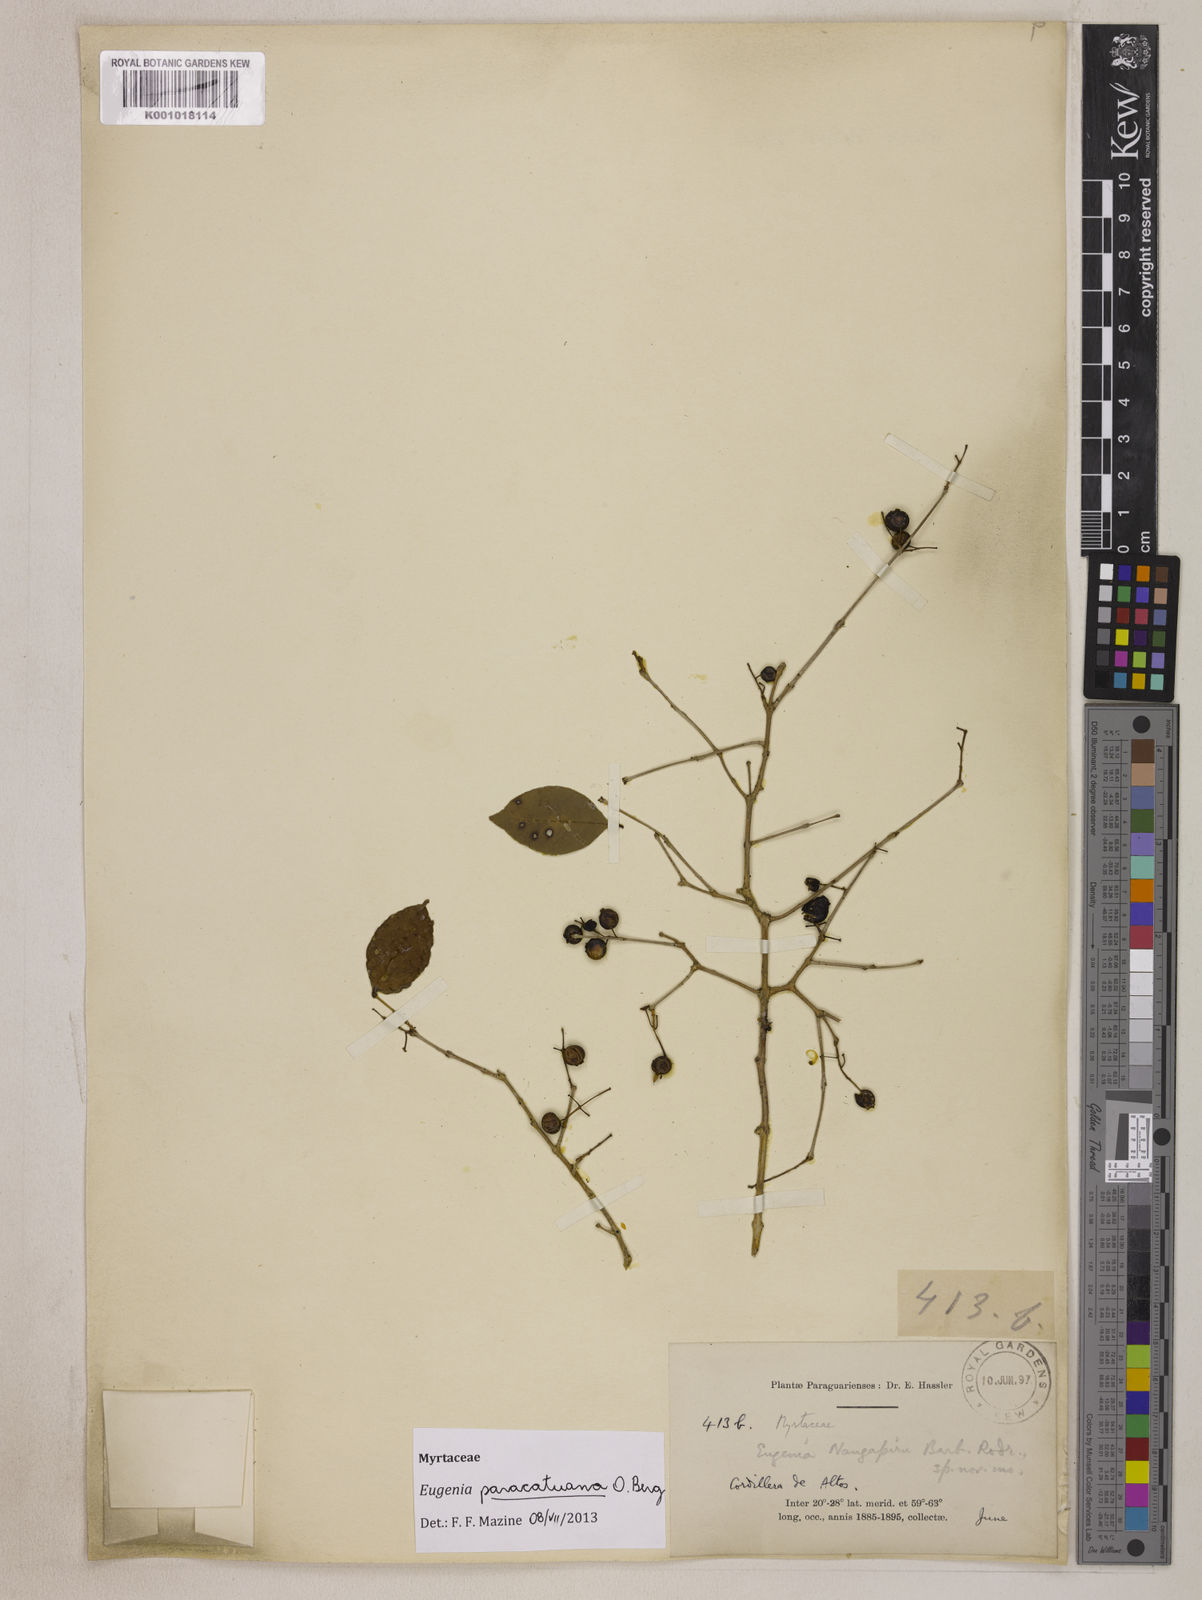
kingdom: Plantae
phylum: Tracheophyta
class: Magnoliopsida
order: Myrtales
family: Myrtaceae
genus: Eugenia
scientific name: Eugenia moraviana
